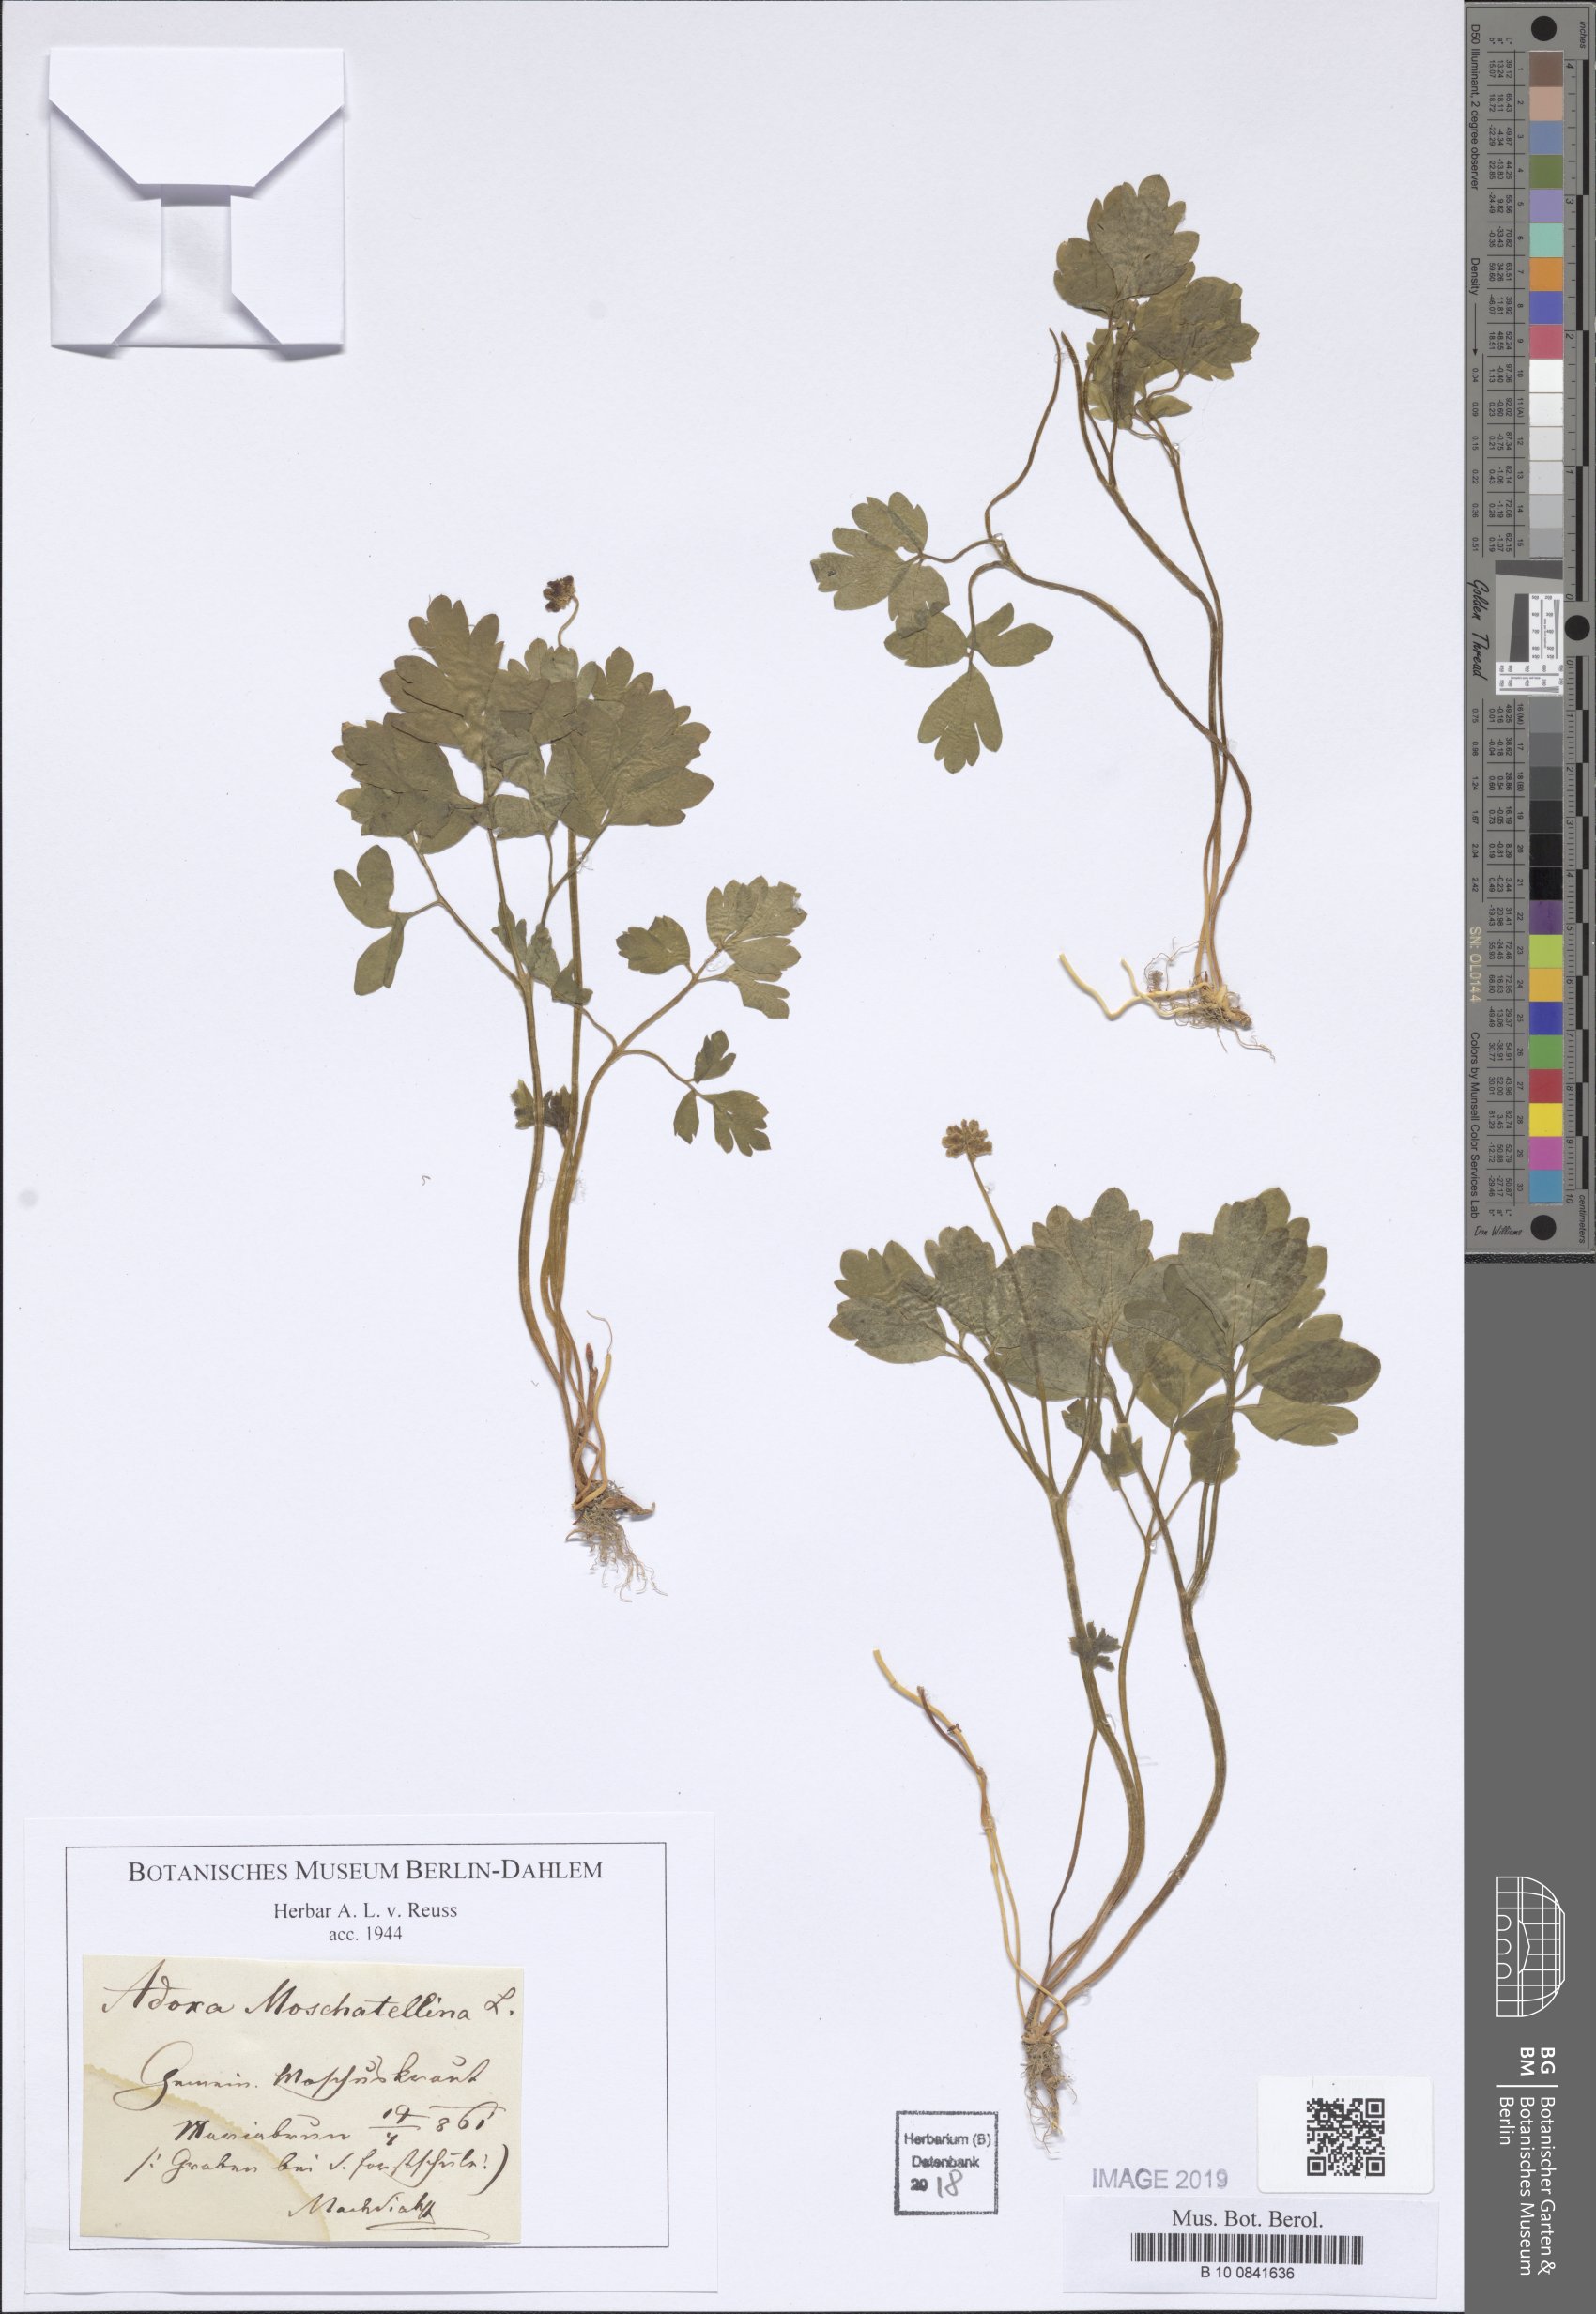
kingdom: Plantae
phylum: Tracheophyta
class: Magnoliopsida
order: Dipsacales
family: Viburnaceae
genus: Adoxa
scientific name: Adoxa moschatellina
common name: Moschatel
